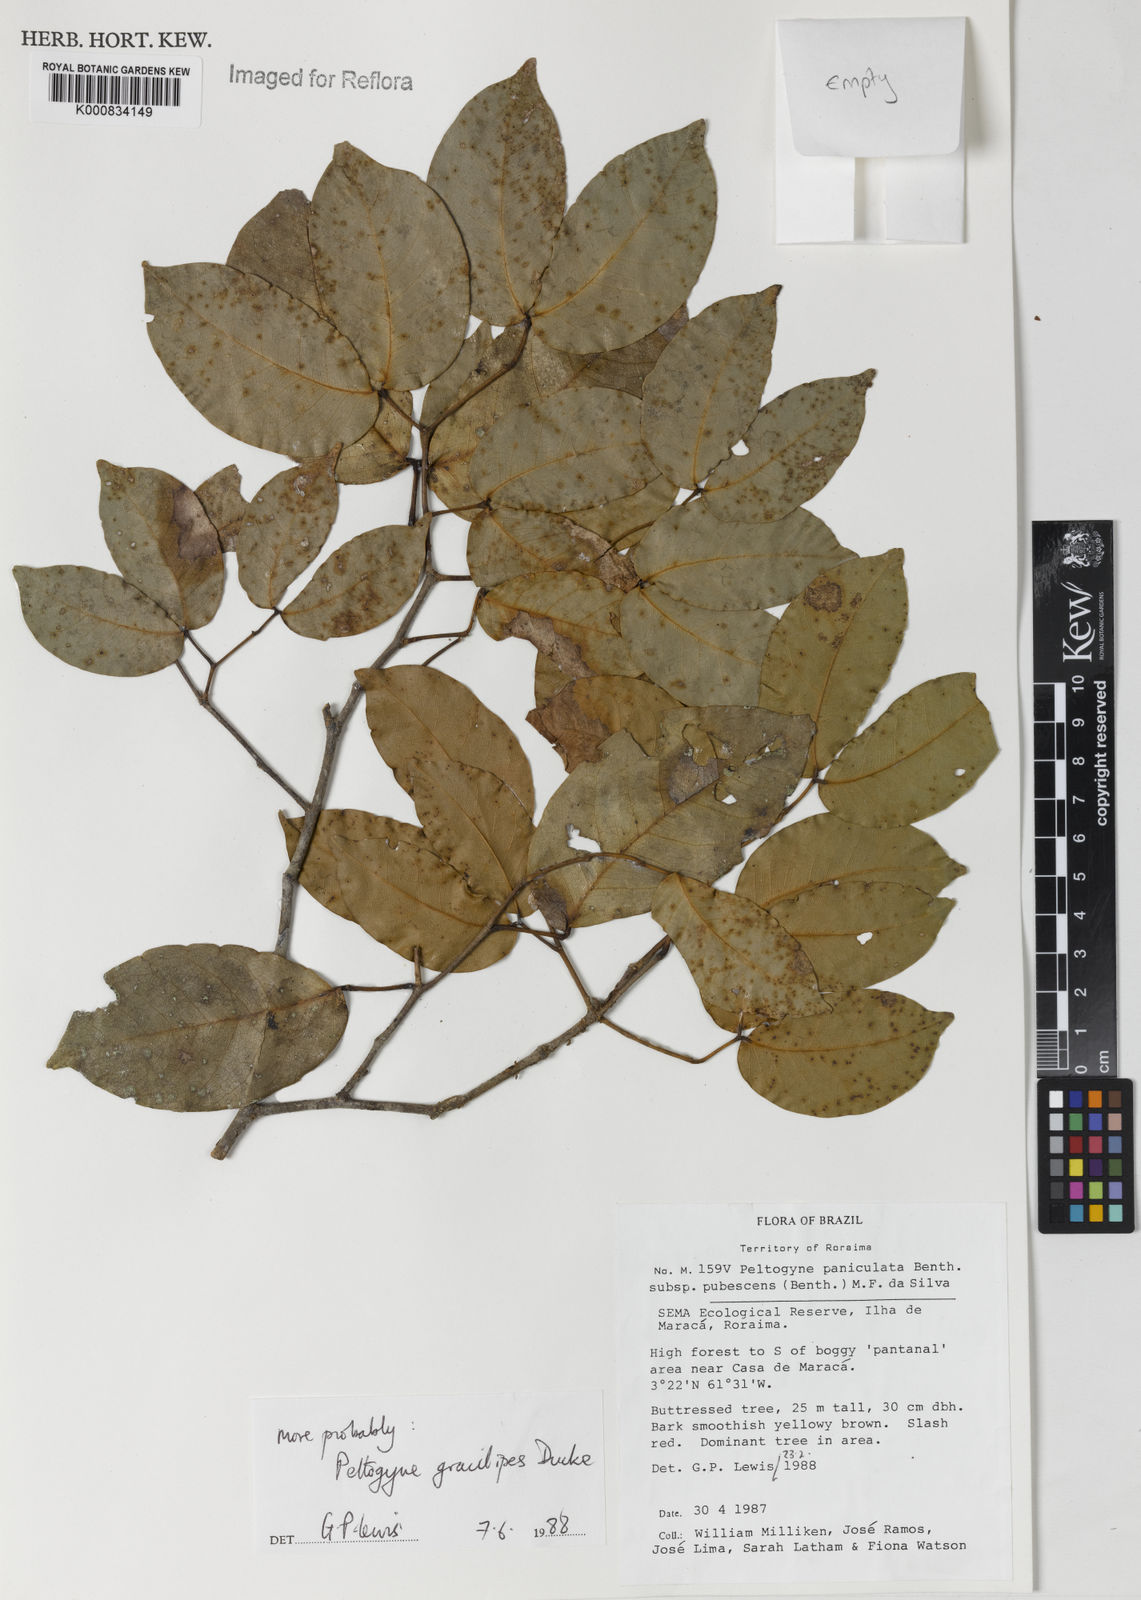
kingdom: Plantae
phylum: Tracheophyta
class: Magnoliopsida
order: Fabales
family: Fabaceae
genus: Peltogyne
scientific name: Peltogyne gracilipes
